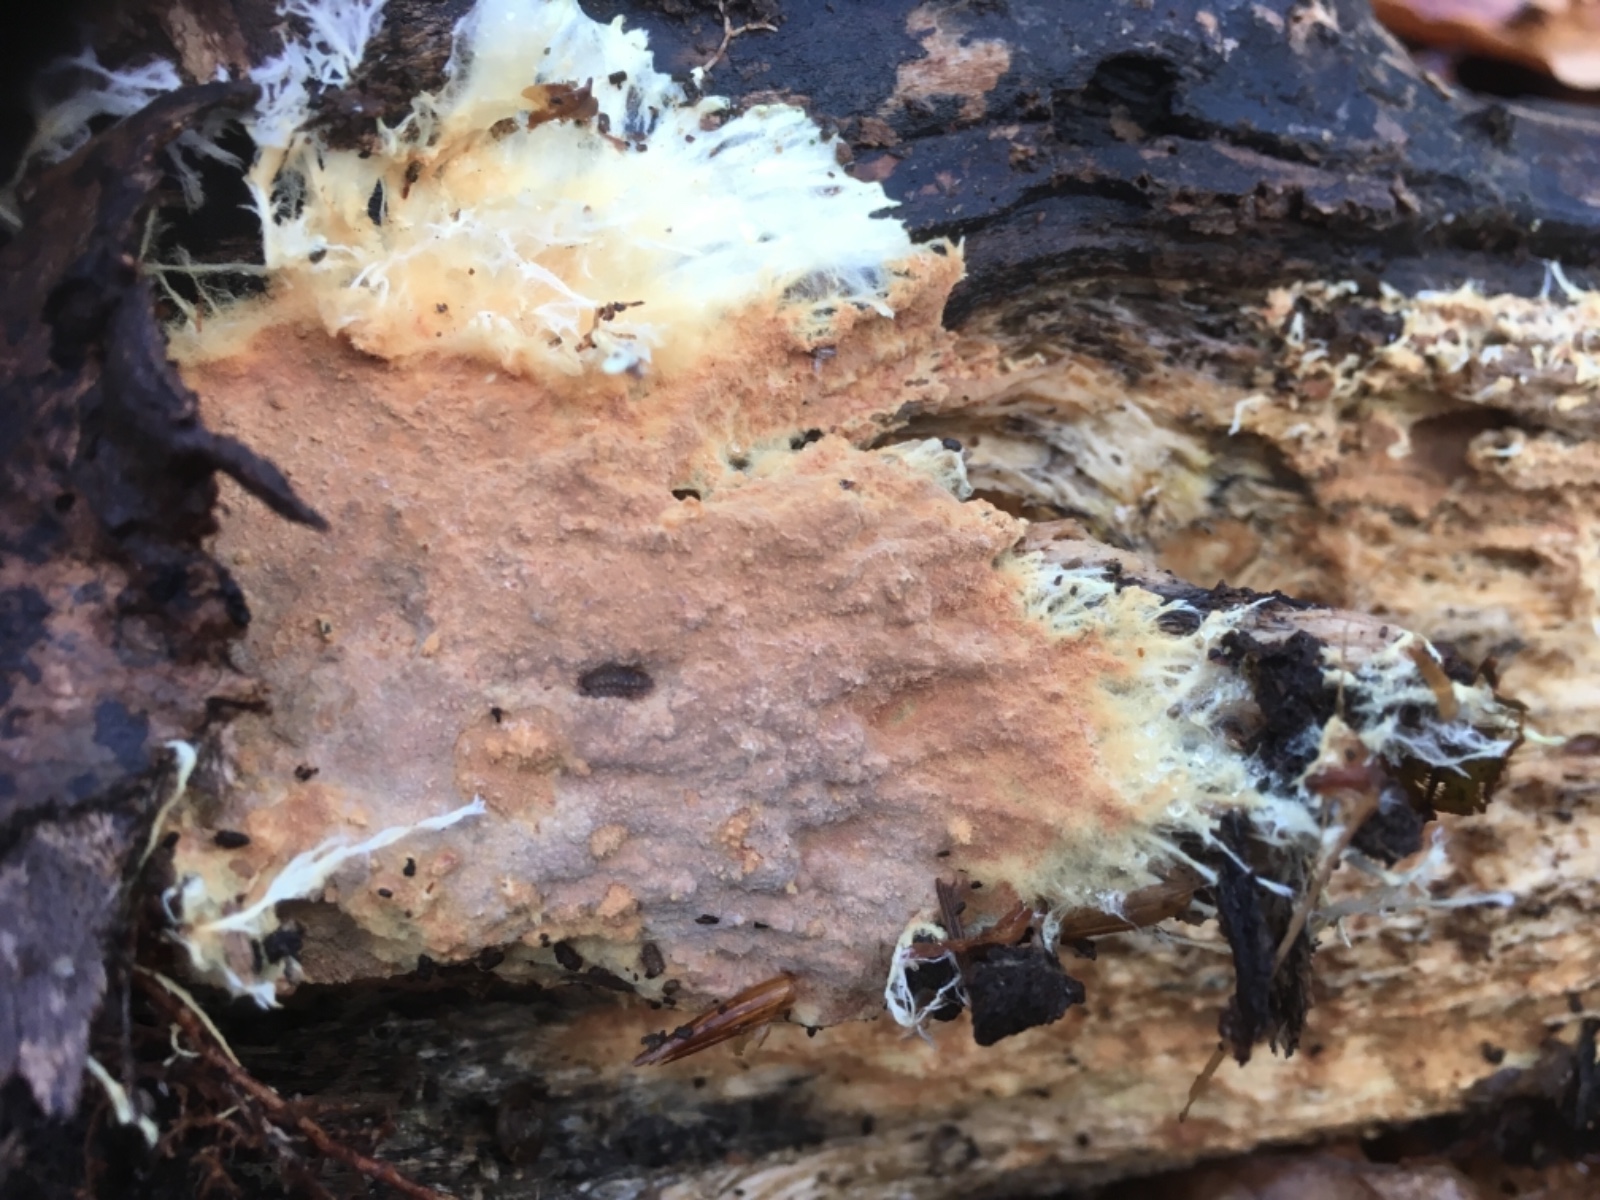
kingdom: Fungi
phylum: Basidiomycota
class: Agaricomycetes
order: Polyporales
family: Phanerochaetaceae
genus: Rhizochaete
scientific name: Rhizochaete radicata
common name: orangebrun randtråd
